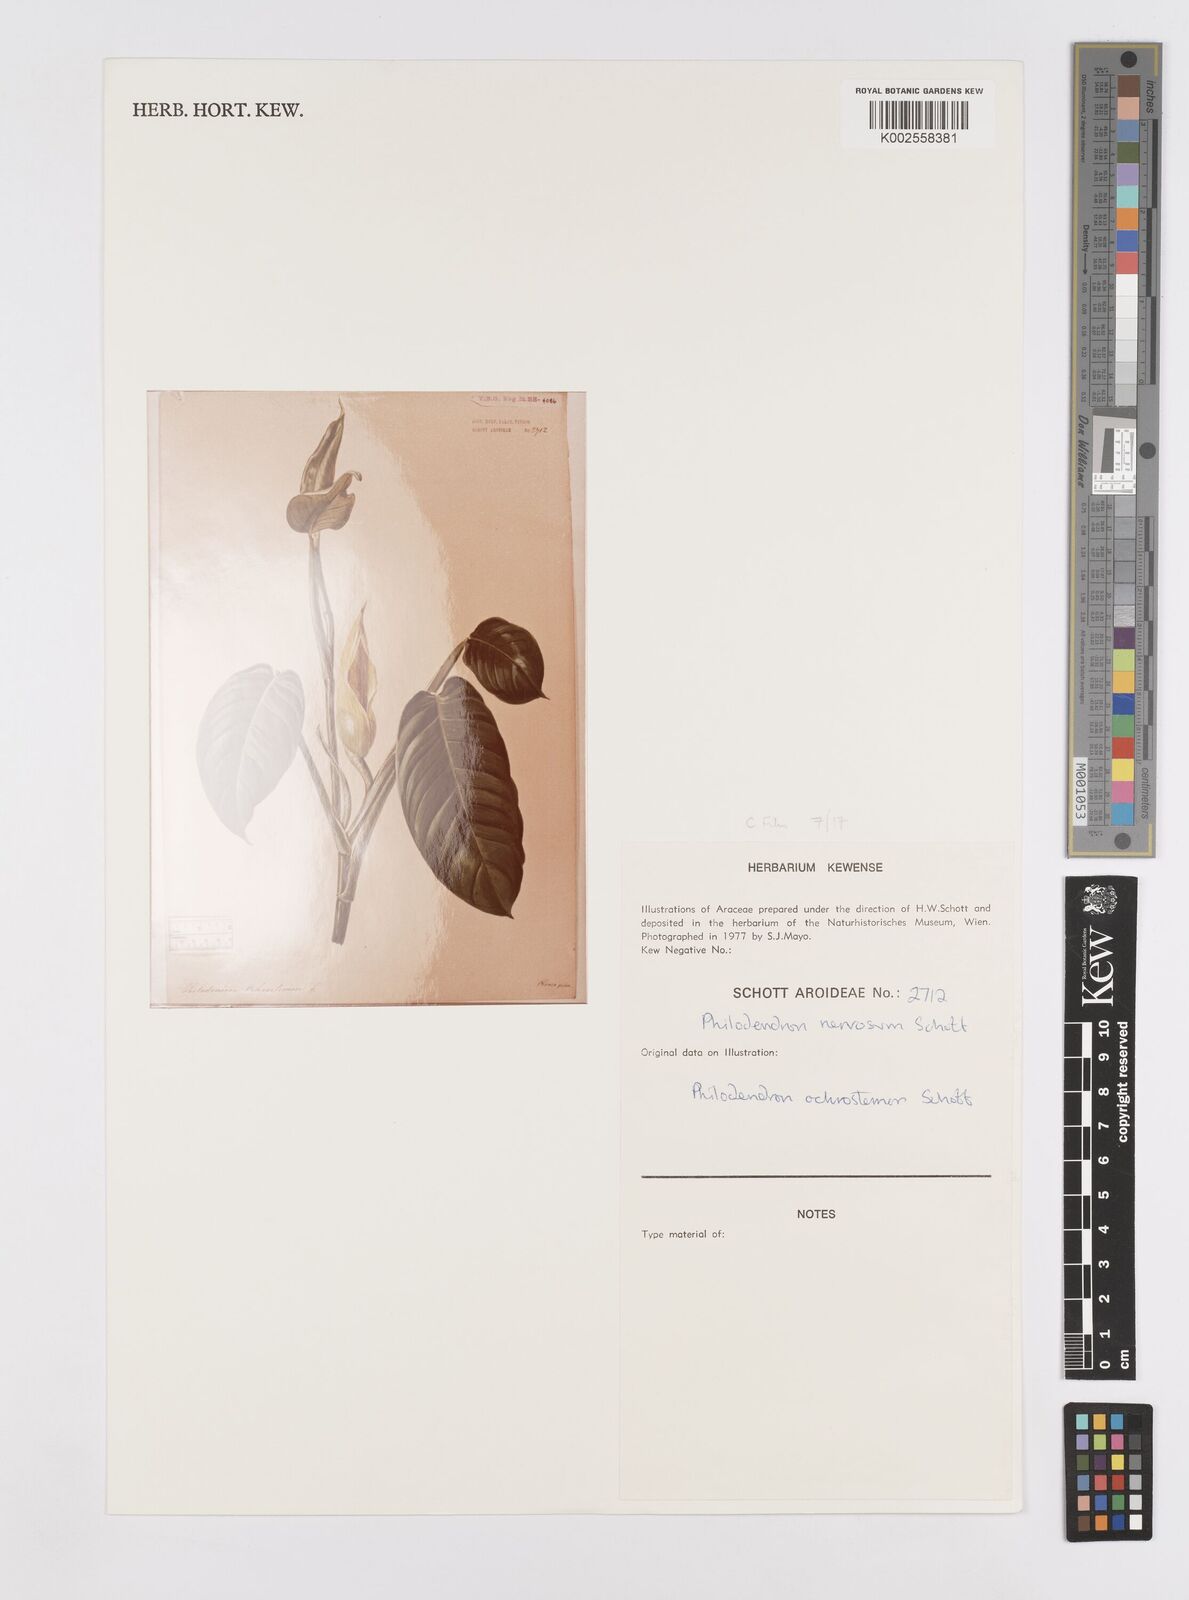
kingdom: Plantae
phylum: Tracheophyta
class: Liliopsida
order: Alismatales
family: Araceae
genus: Philodendron
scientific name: Philodendron ochrostemon
